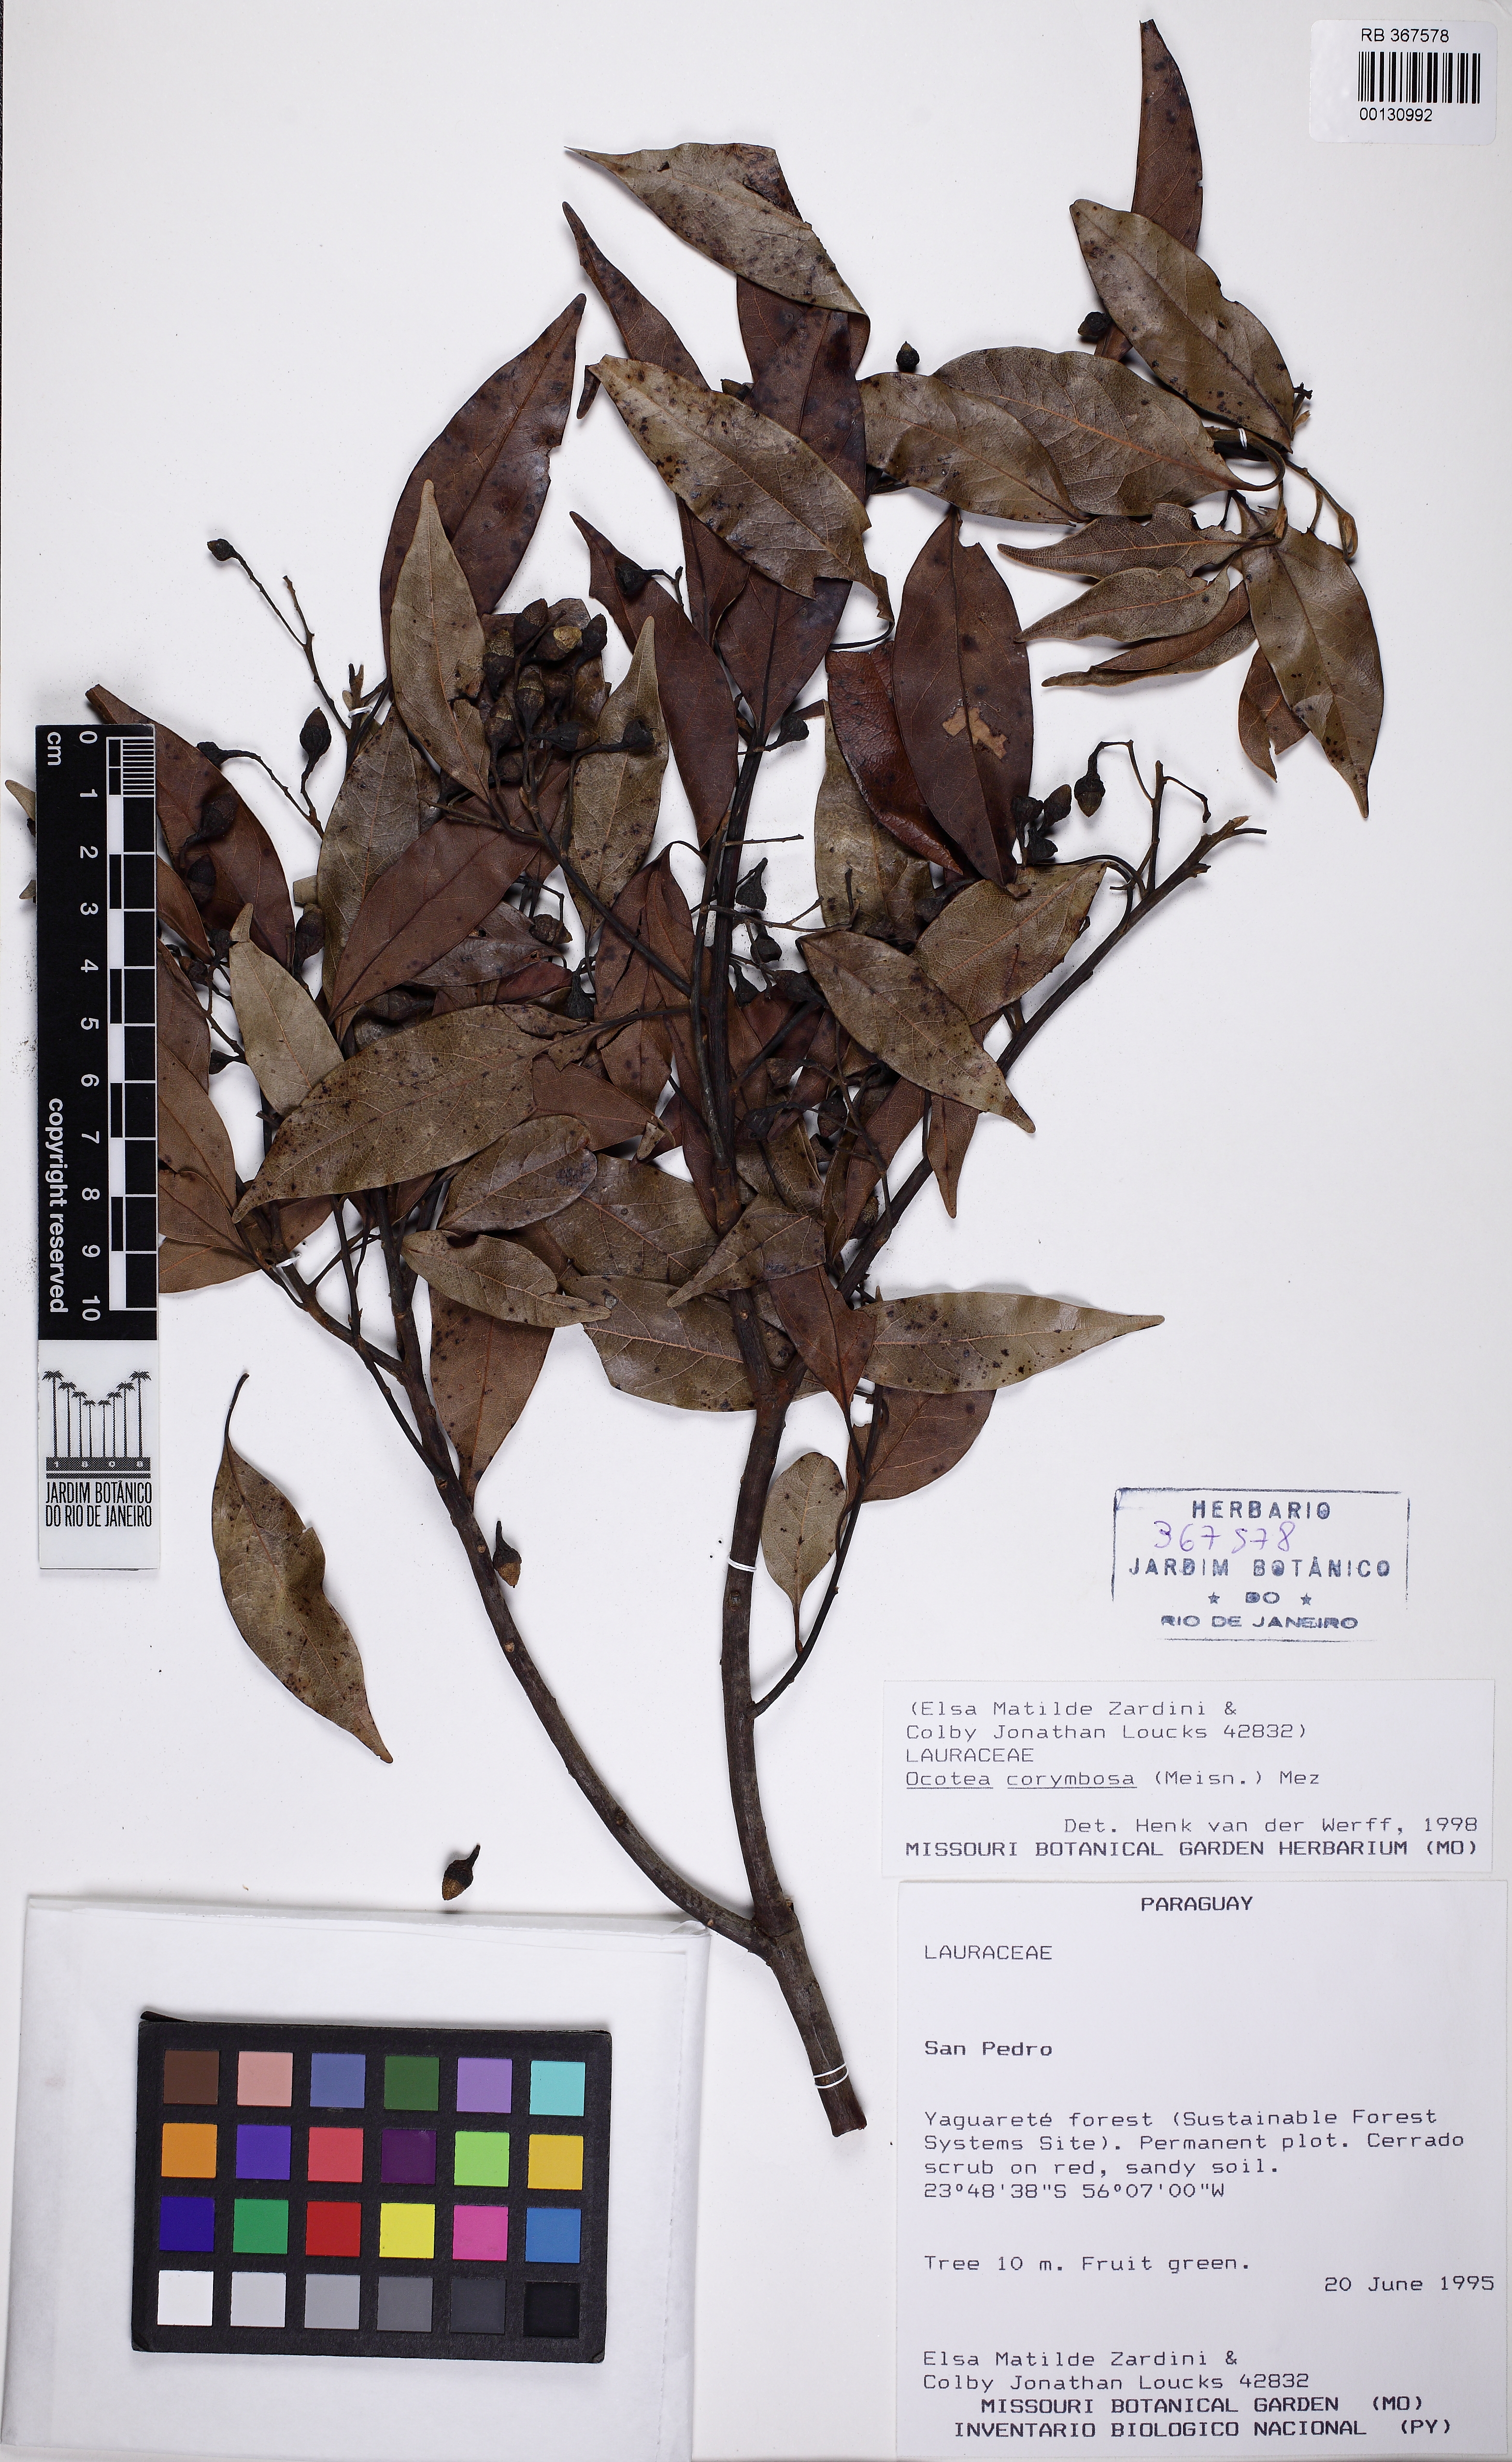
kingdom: Plantae
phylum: Tracheophyta
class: Magnoliopsida
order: Laurales
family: Lauraceae
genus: Mespilodaphne
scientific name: Mespilodaphne corymbosa
